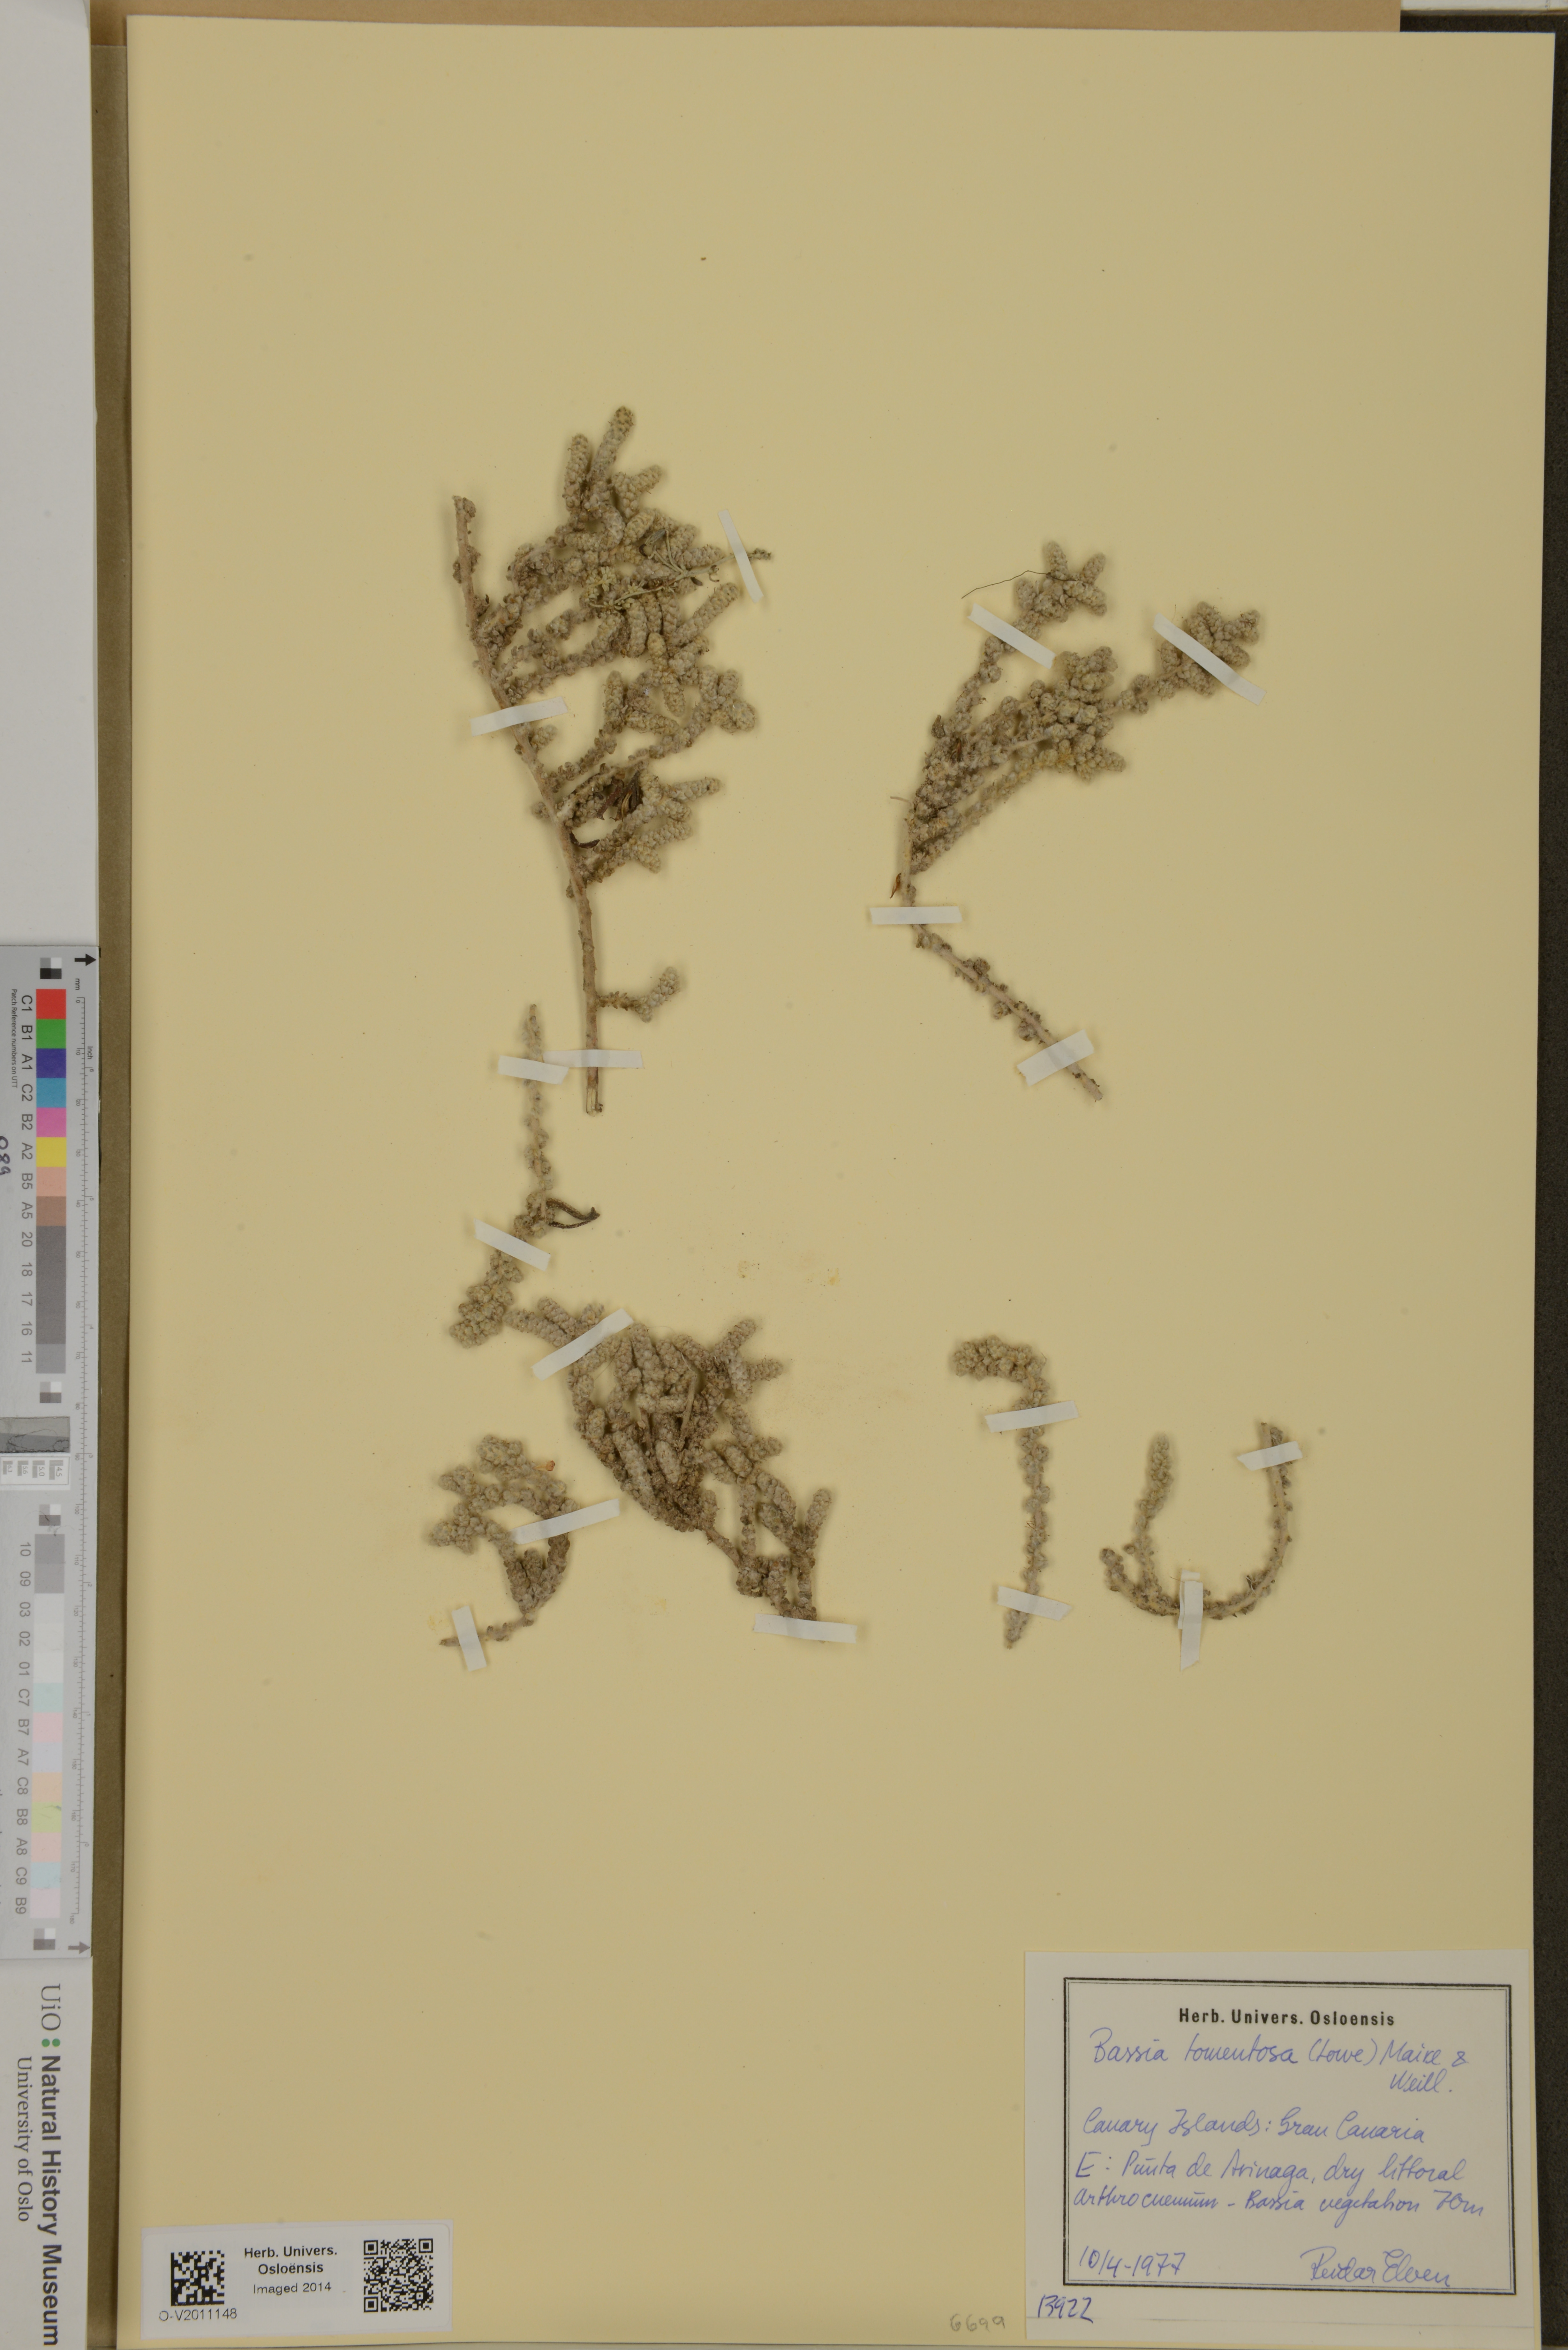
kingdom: Plantae
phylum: Tracheophyta
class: Magnoliopsida
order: Caryophyllales
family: Amaranthaceae
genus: Bassia
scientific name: Bassia tomentosa
